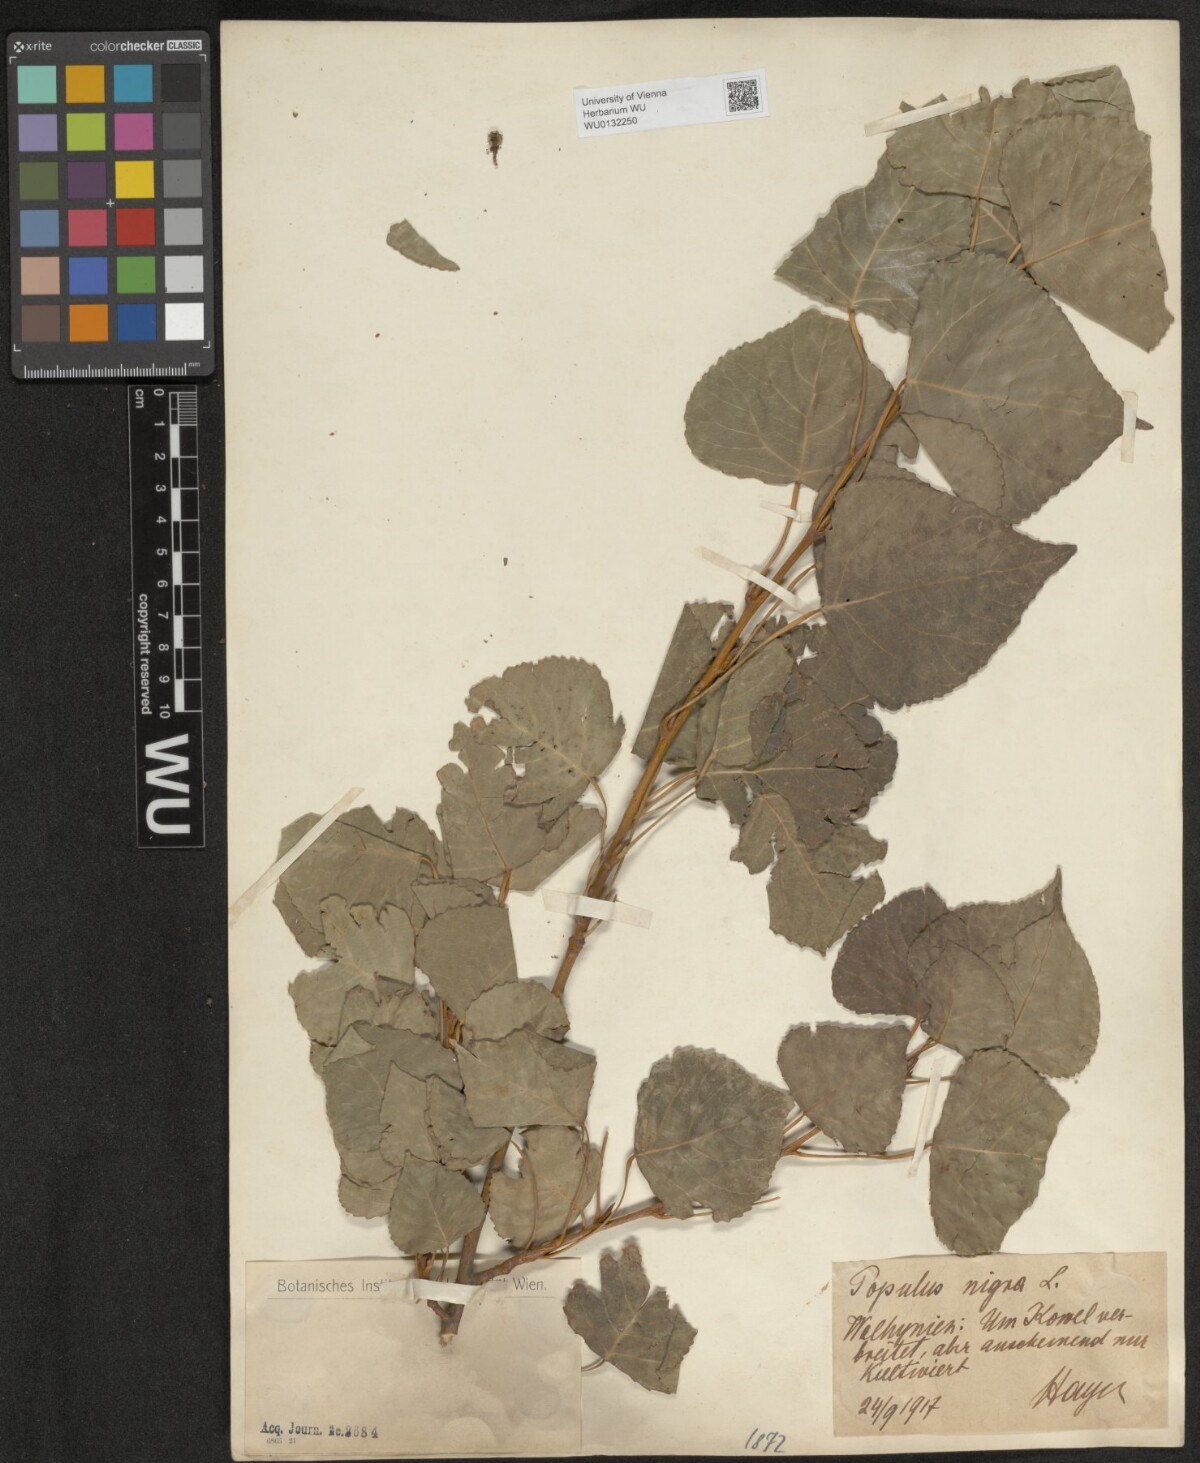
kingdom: Plantae
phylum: Tracheophyta
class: Magnoliopsida
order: Malpighiales
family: Salicaceae
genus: Populus
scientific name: Populus nigra
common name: Black poplar
